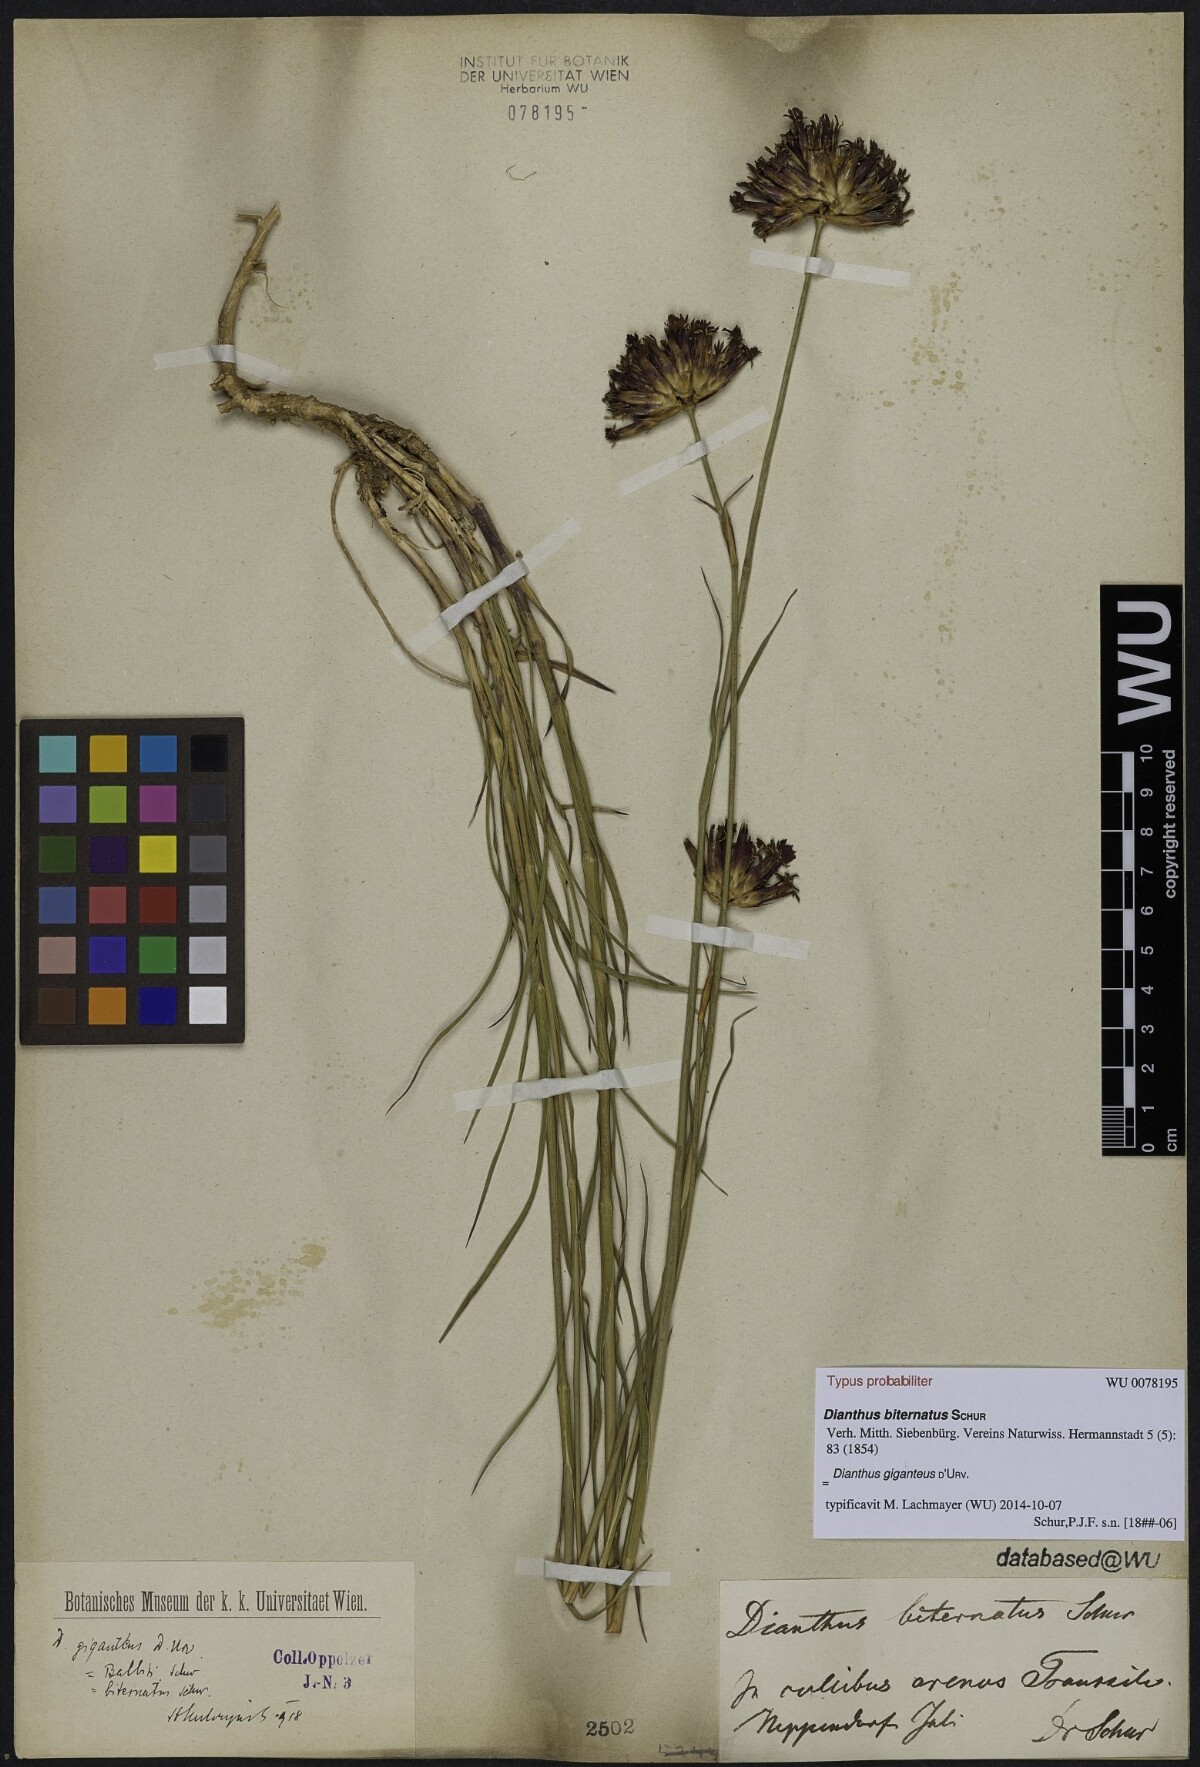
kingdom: Plantae
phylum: Tracheophyta
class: Magnoliopsida
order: Caryophyllales
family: Caryophyllaceae
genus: Dianthus
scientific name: Dianthus trifasciculatus
